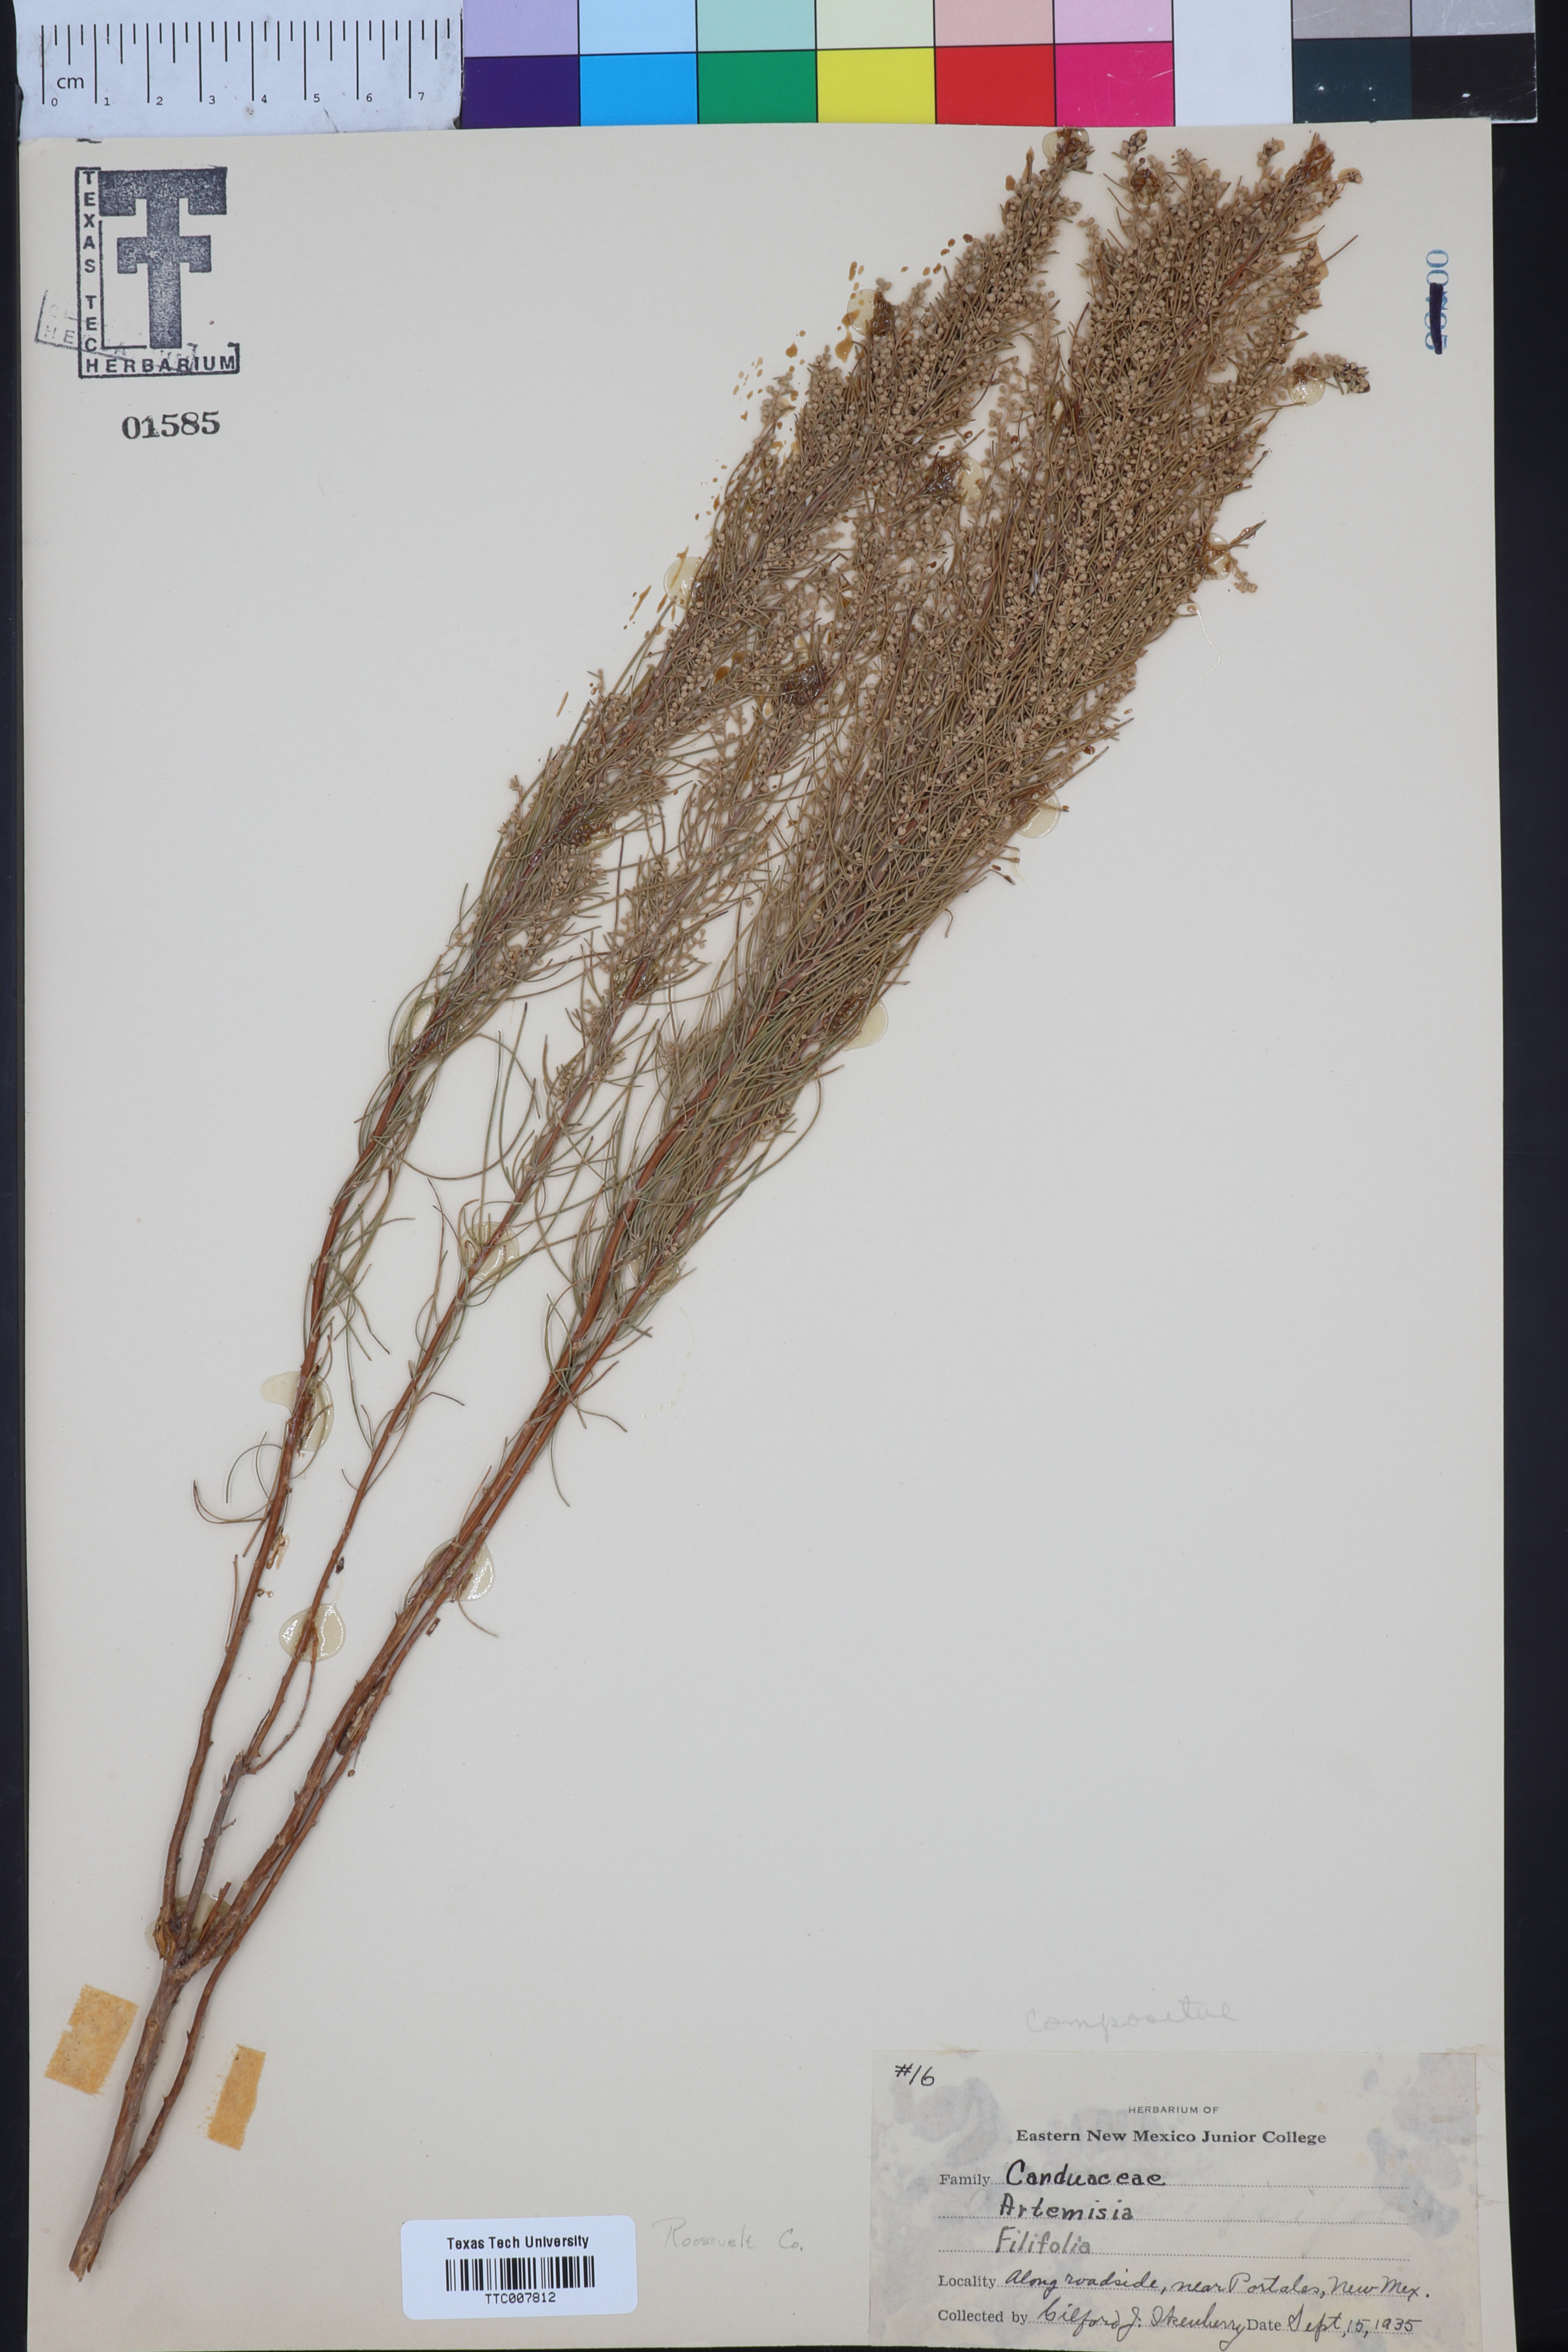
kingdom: Plantae
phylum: Tracheophyta
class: Magnoliopsida
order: Asterales
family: Asteraceae
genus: Artemisia
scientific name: Artemisia filifolia
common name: Sand-sage
